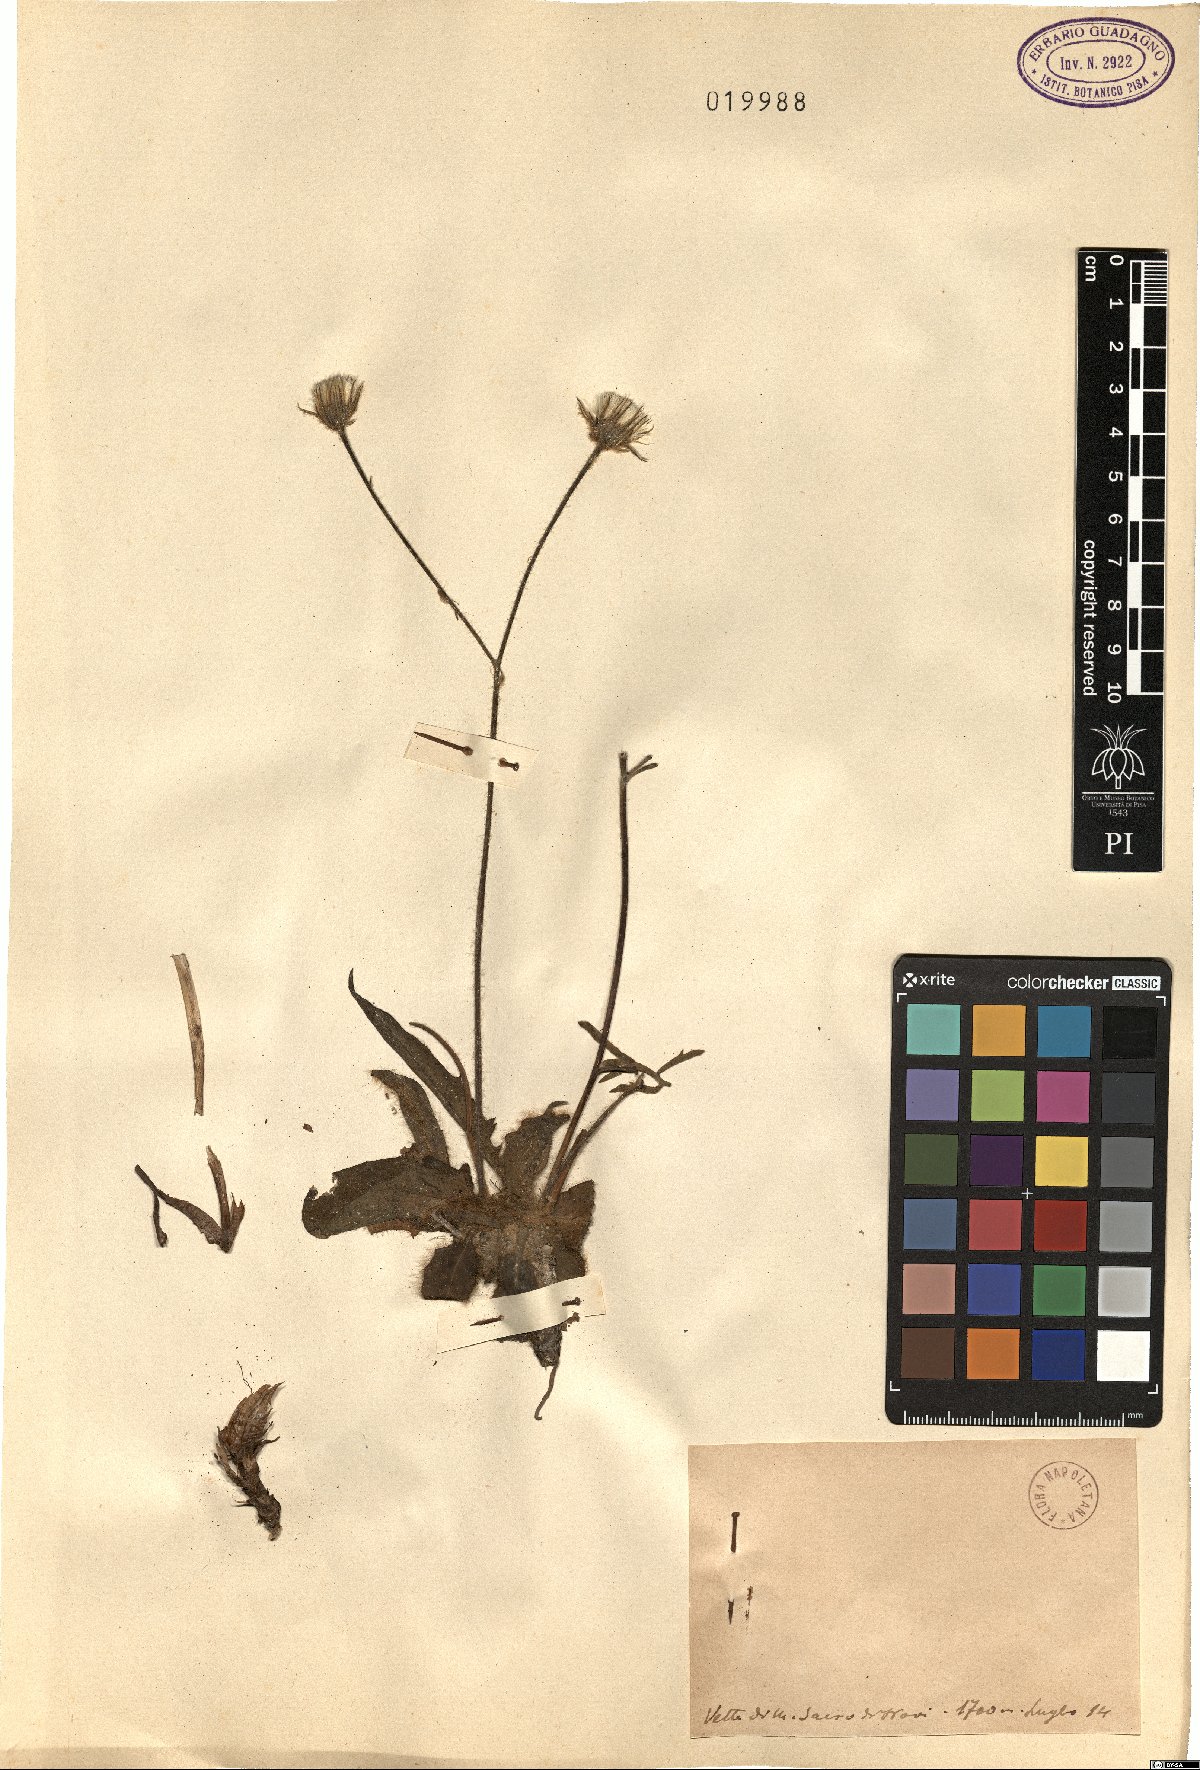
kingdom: Plantae
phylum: Tracheophyta
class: Magnoliopsida
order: Asterales
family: Asteraceae
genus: Hieracium
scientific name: Hieracium
